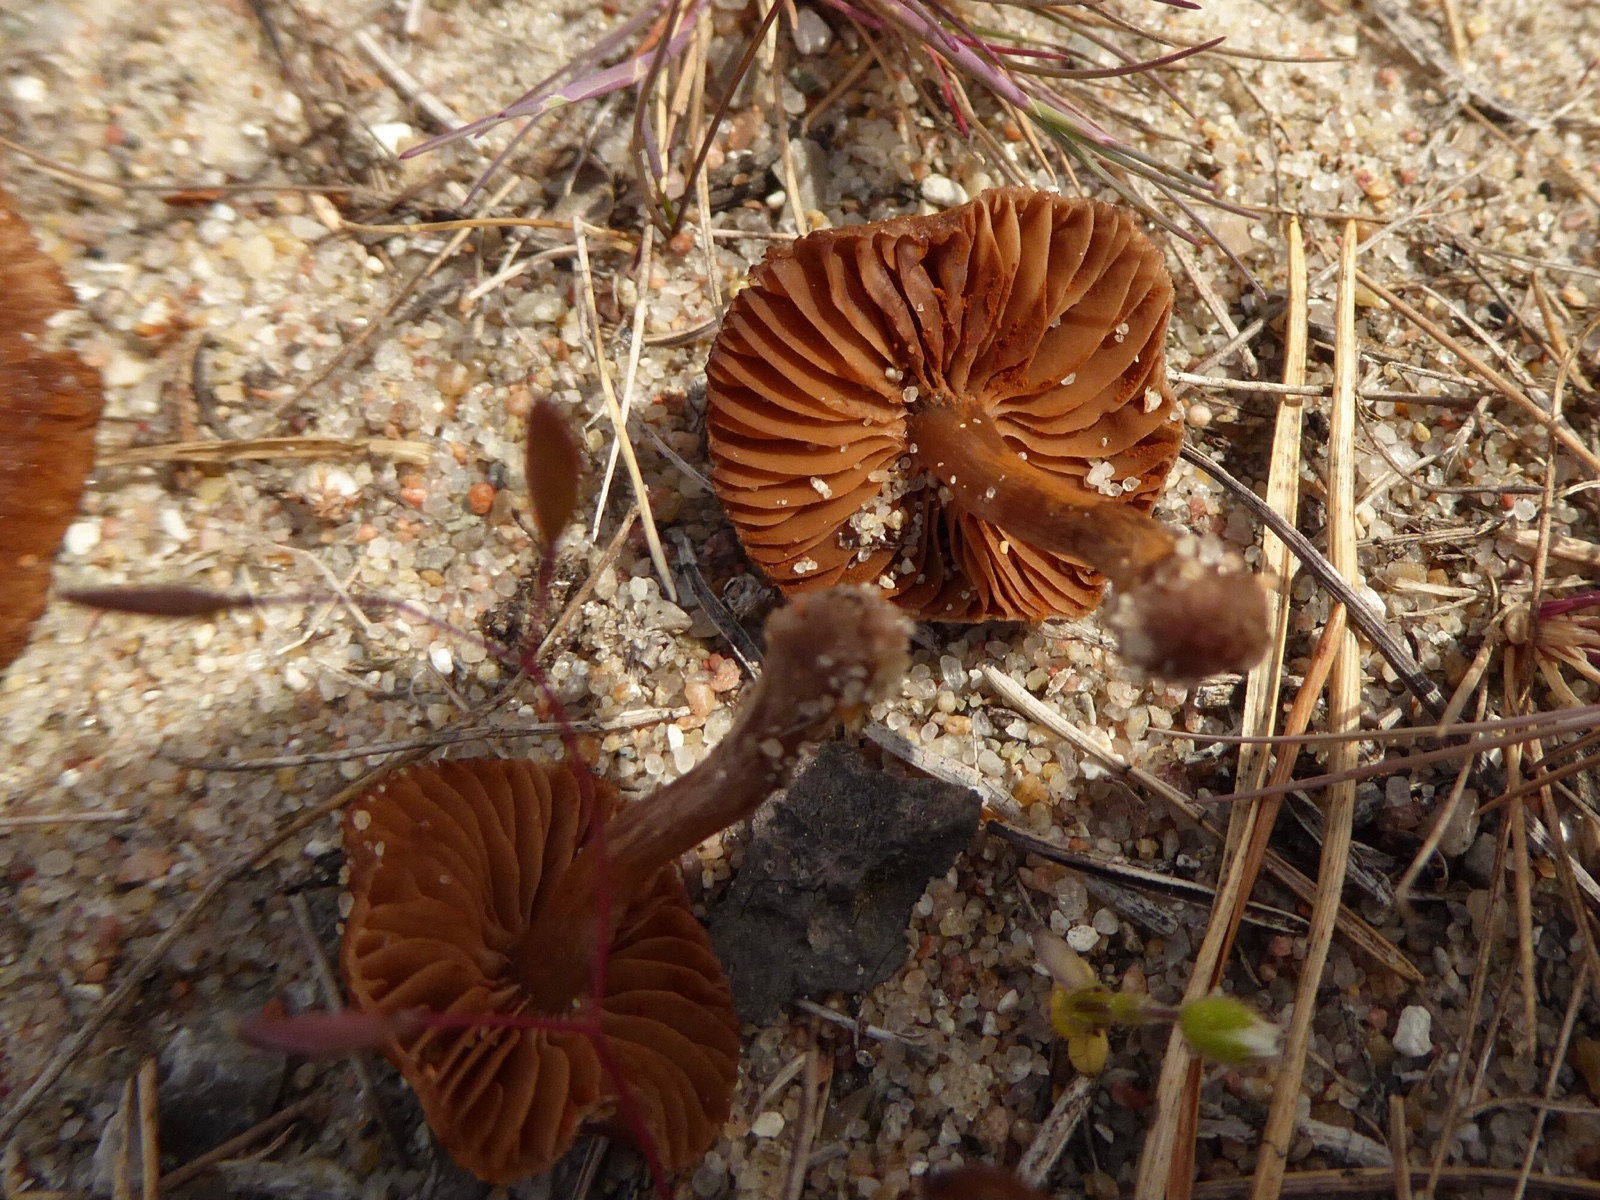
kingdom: Fungi
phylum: Basidiomycota
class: Agaricomycetes
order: Agaricales
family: Cortinariaceae
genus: Cortinarius
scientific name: Cortinarius
